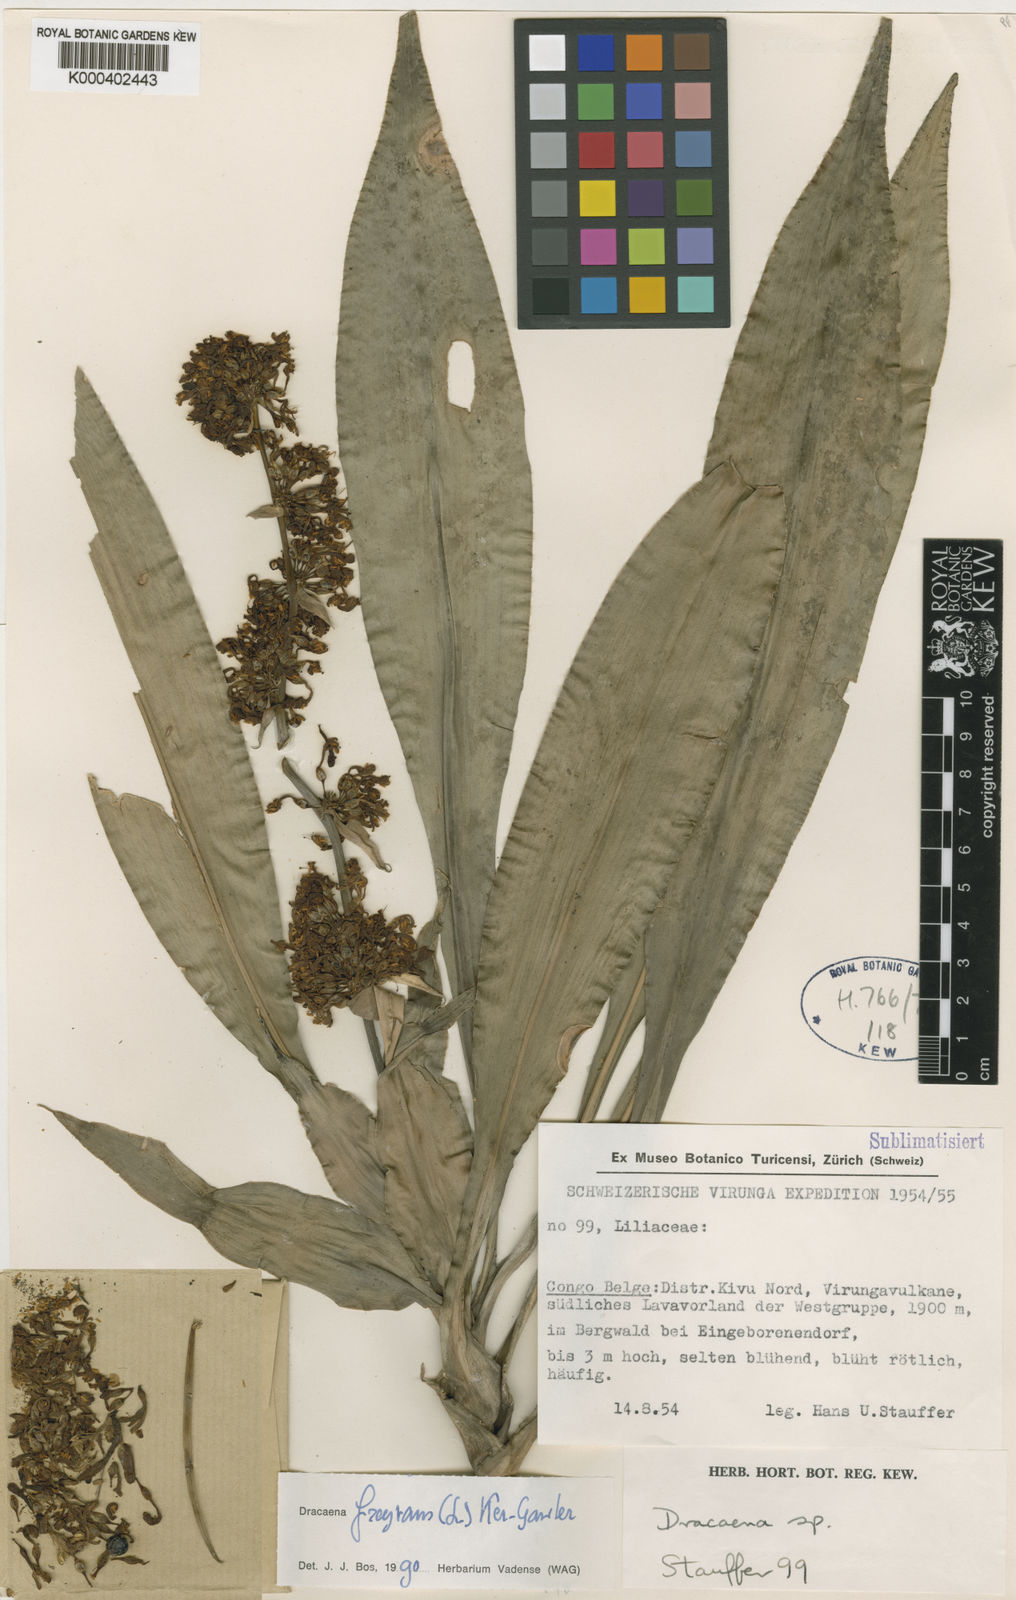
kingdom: Plantae
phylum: Tracheophyta
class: Liliopsida
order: Asparagales
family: Asparagaceae
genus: Dracaena
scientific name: Dracaena fragrans
